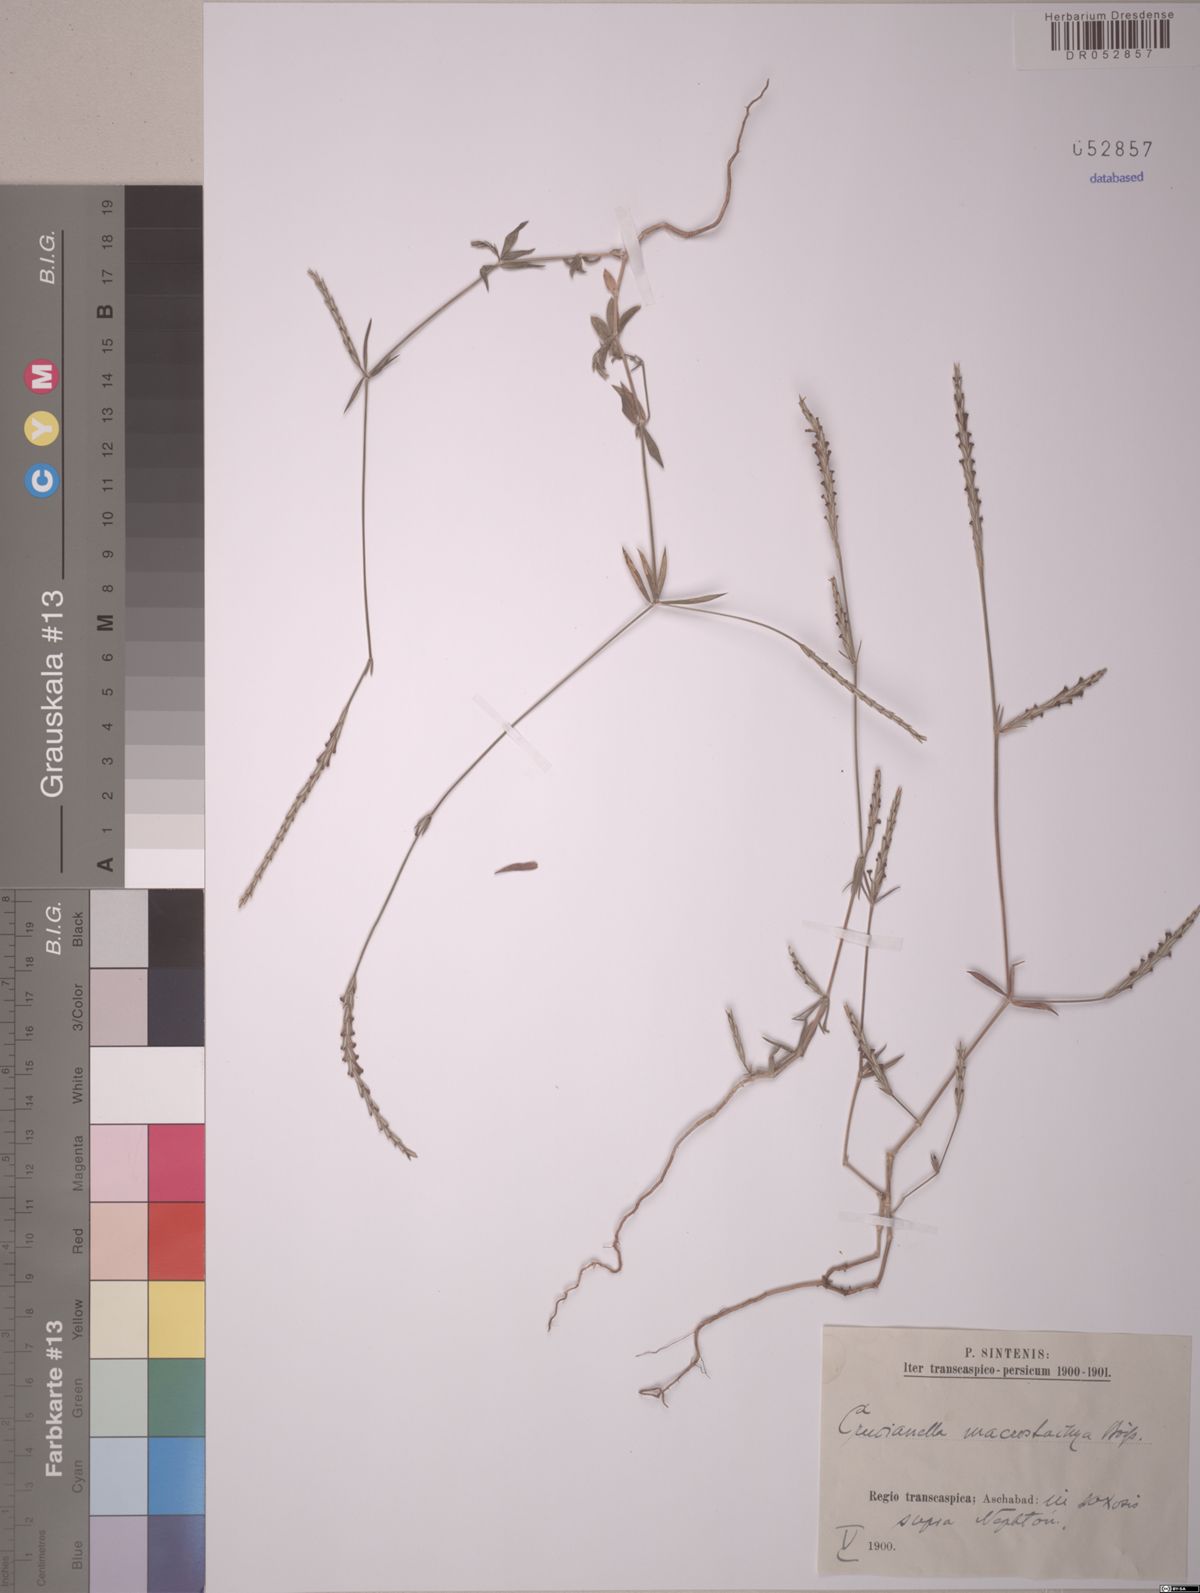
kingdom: Plantae
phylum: Tracheophyta
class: Magnoliopsida
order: Gentianales
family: Rubiaceae
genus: Crucianella
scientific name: Crucianella macrostachya
